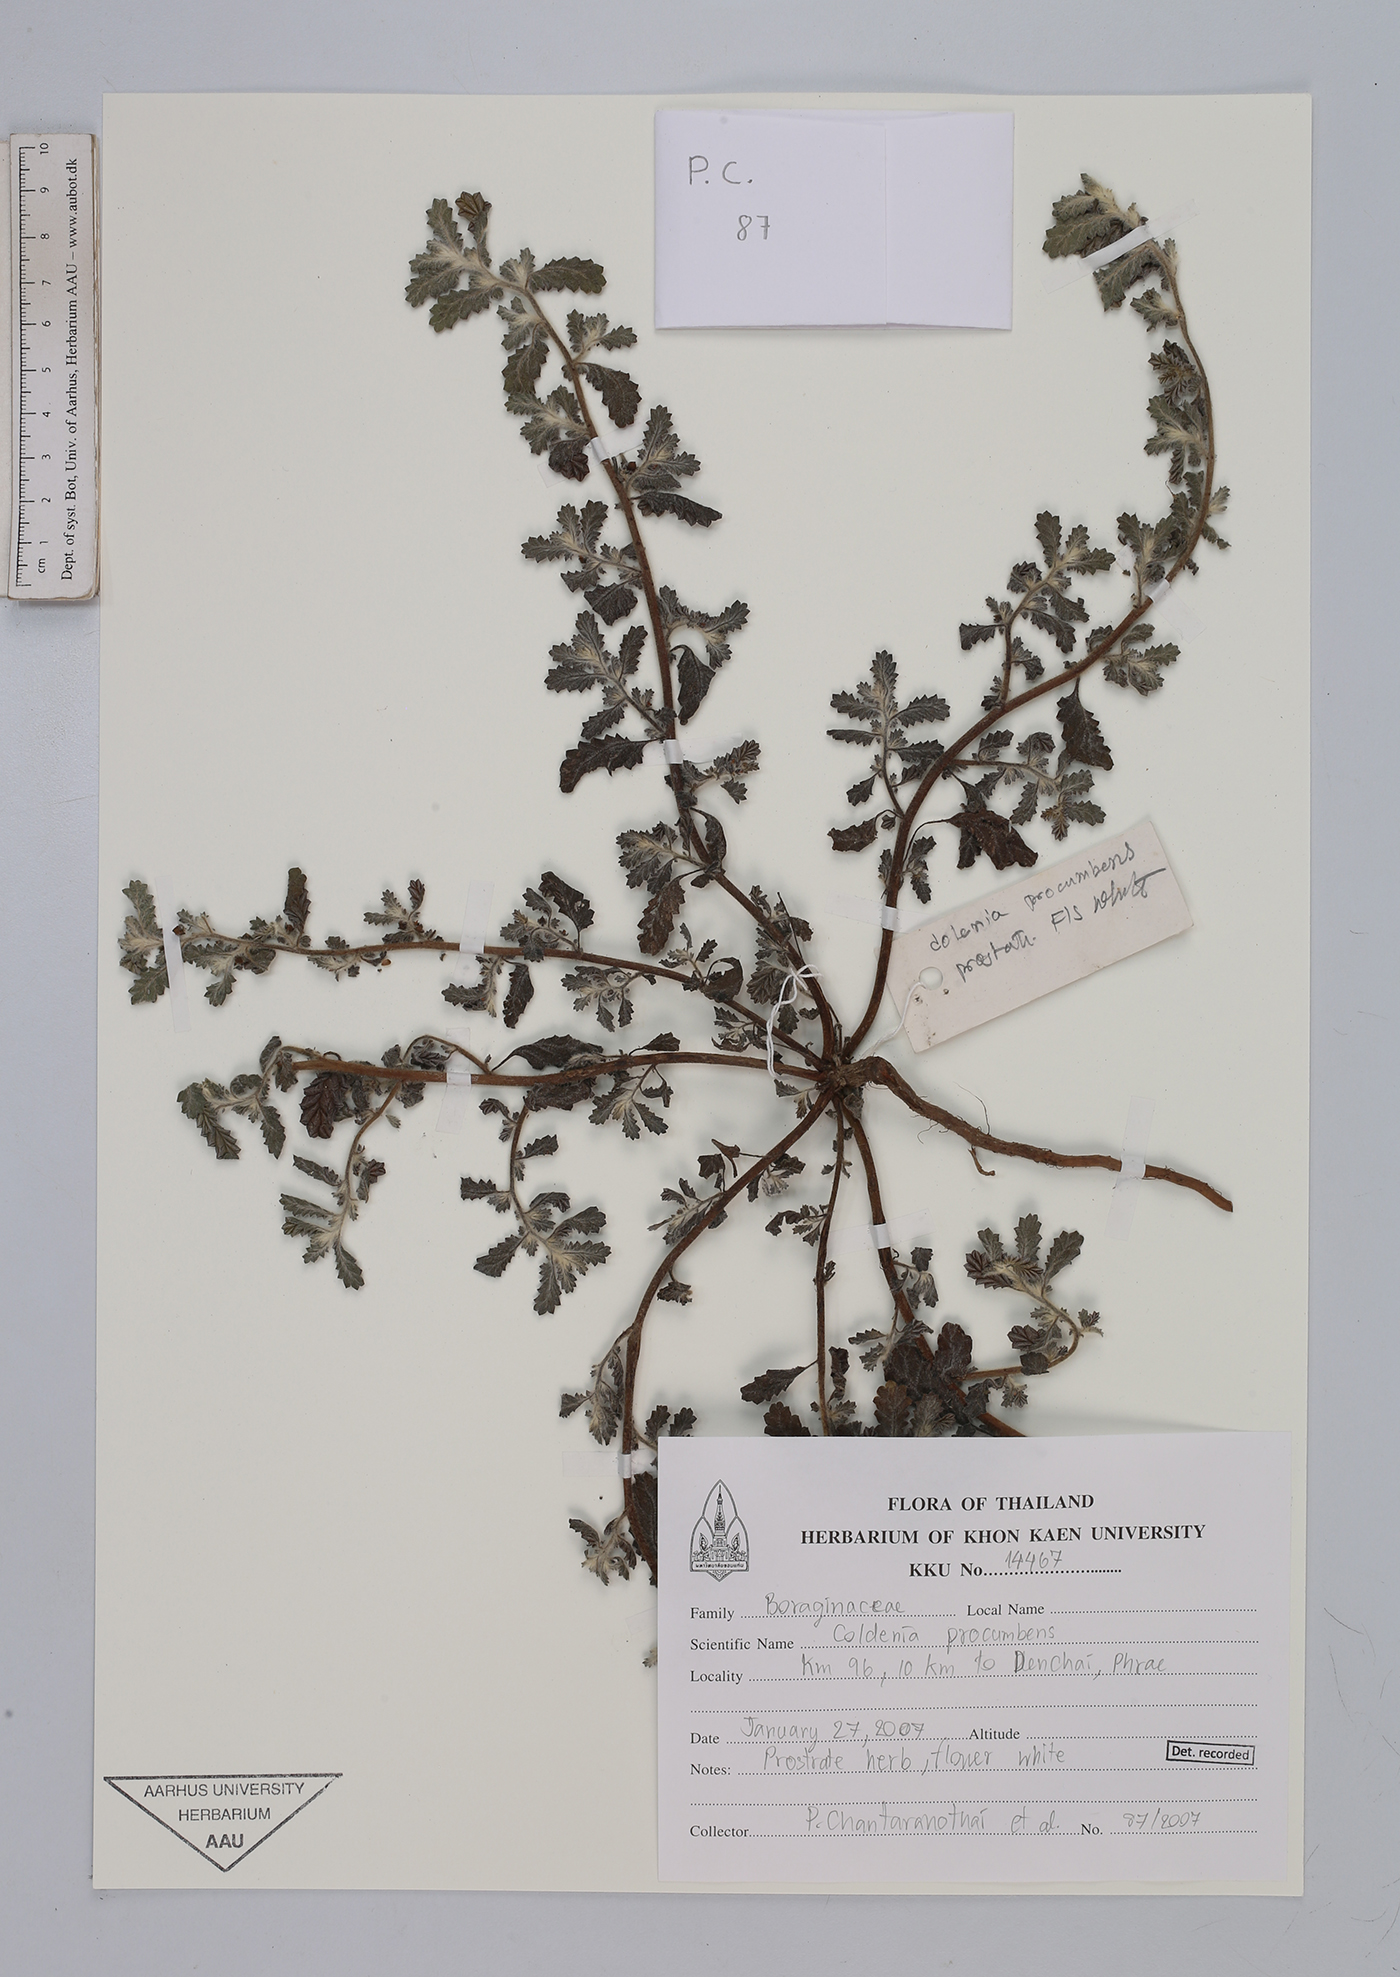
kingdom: Plantae
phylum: Tracheophyta
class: Magnoliopsida
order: Boraginales
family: Coldeniaceae
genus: Coldenia
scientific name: Coldenia procumbens
